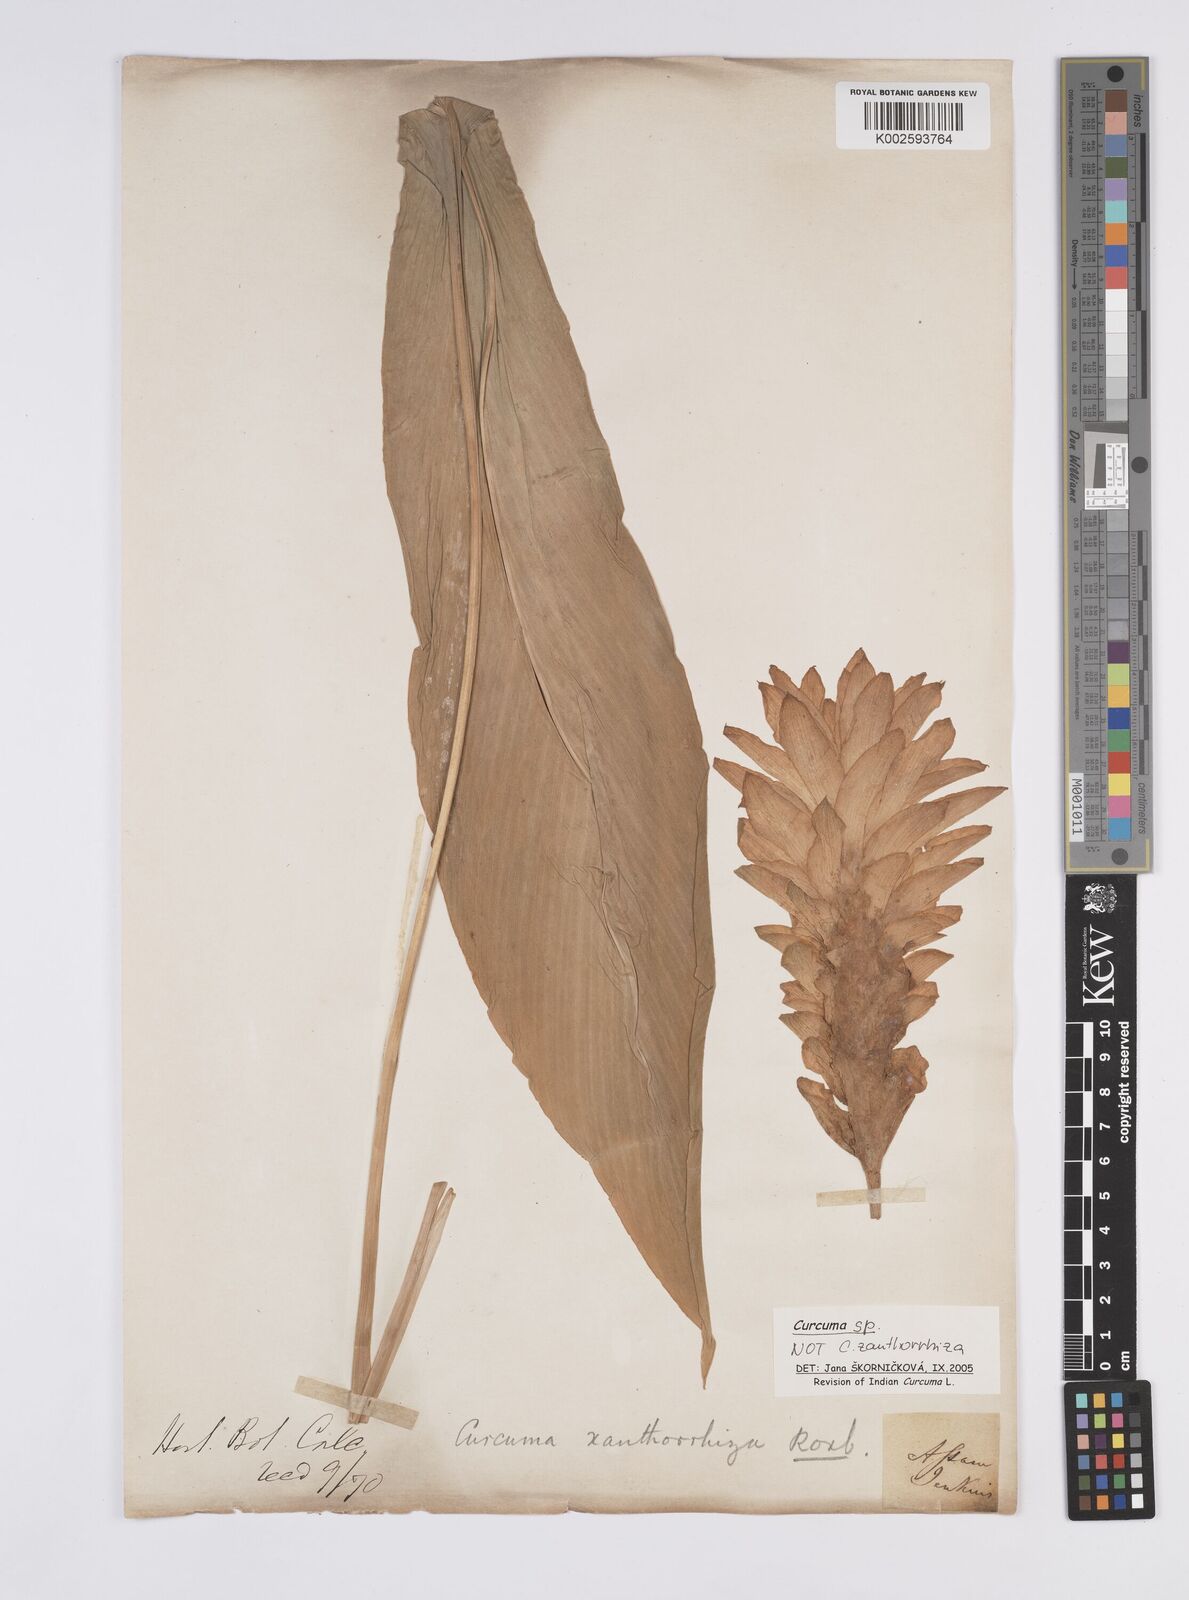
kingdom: Plantae
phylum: Tracheophyta
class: Liliopsida
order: Zingiberales
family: Zingiberaceae
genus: Curcuma
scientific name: Curcuma
